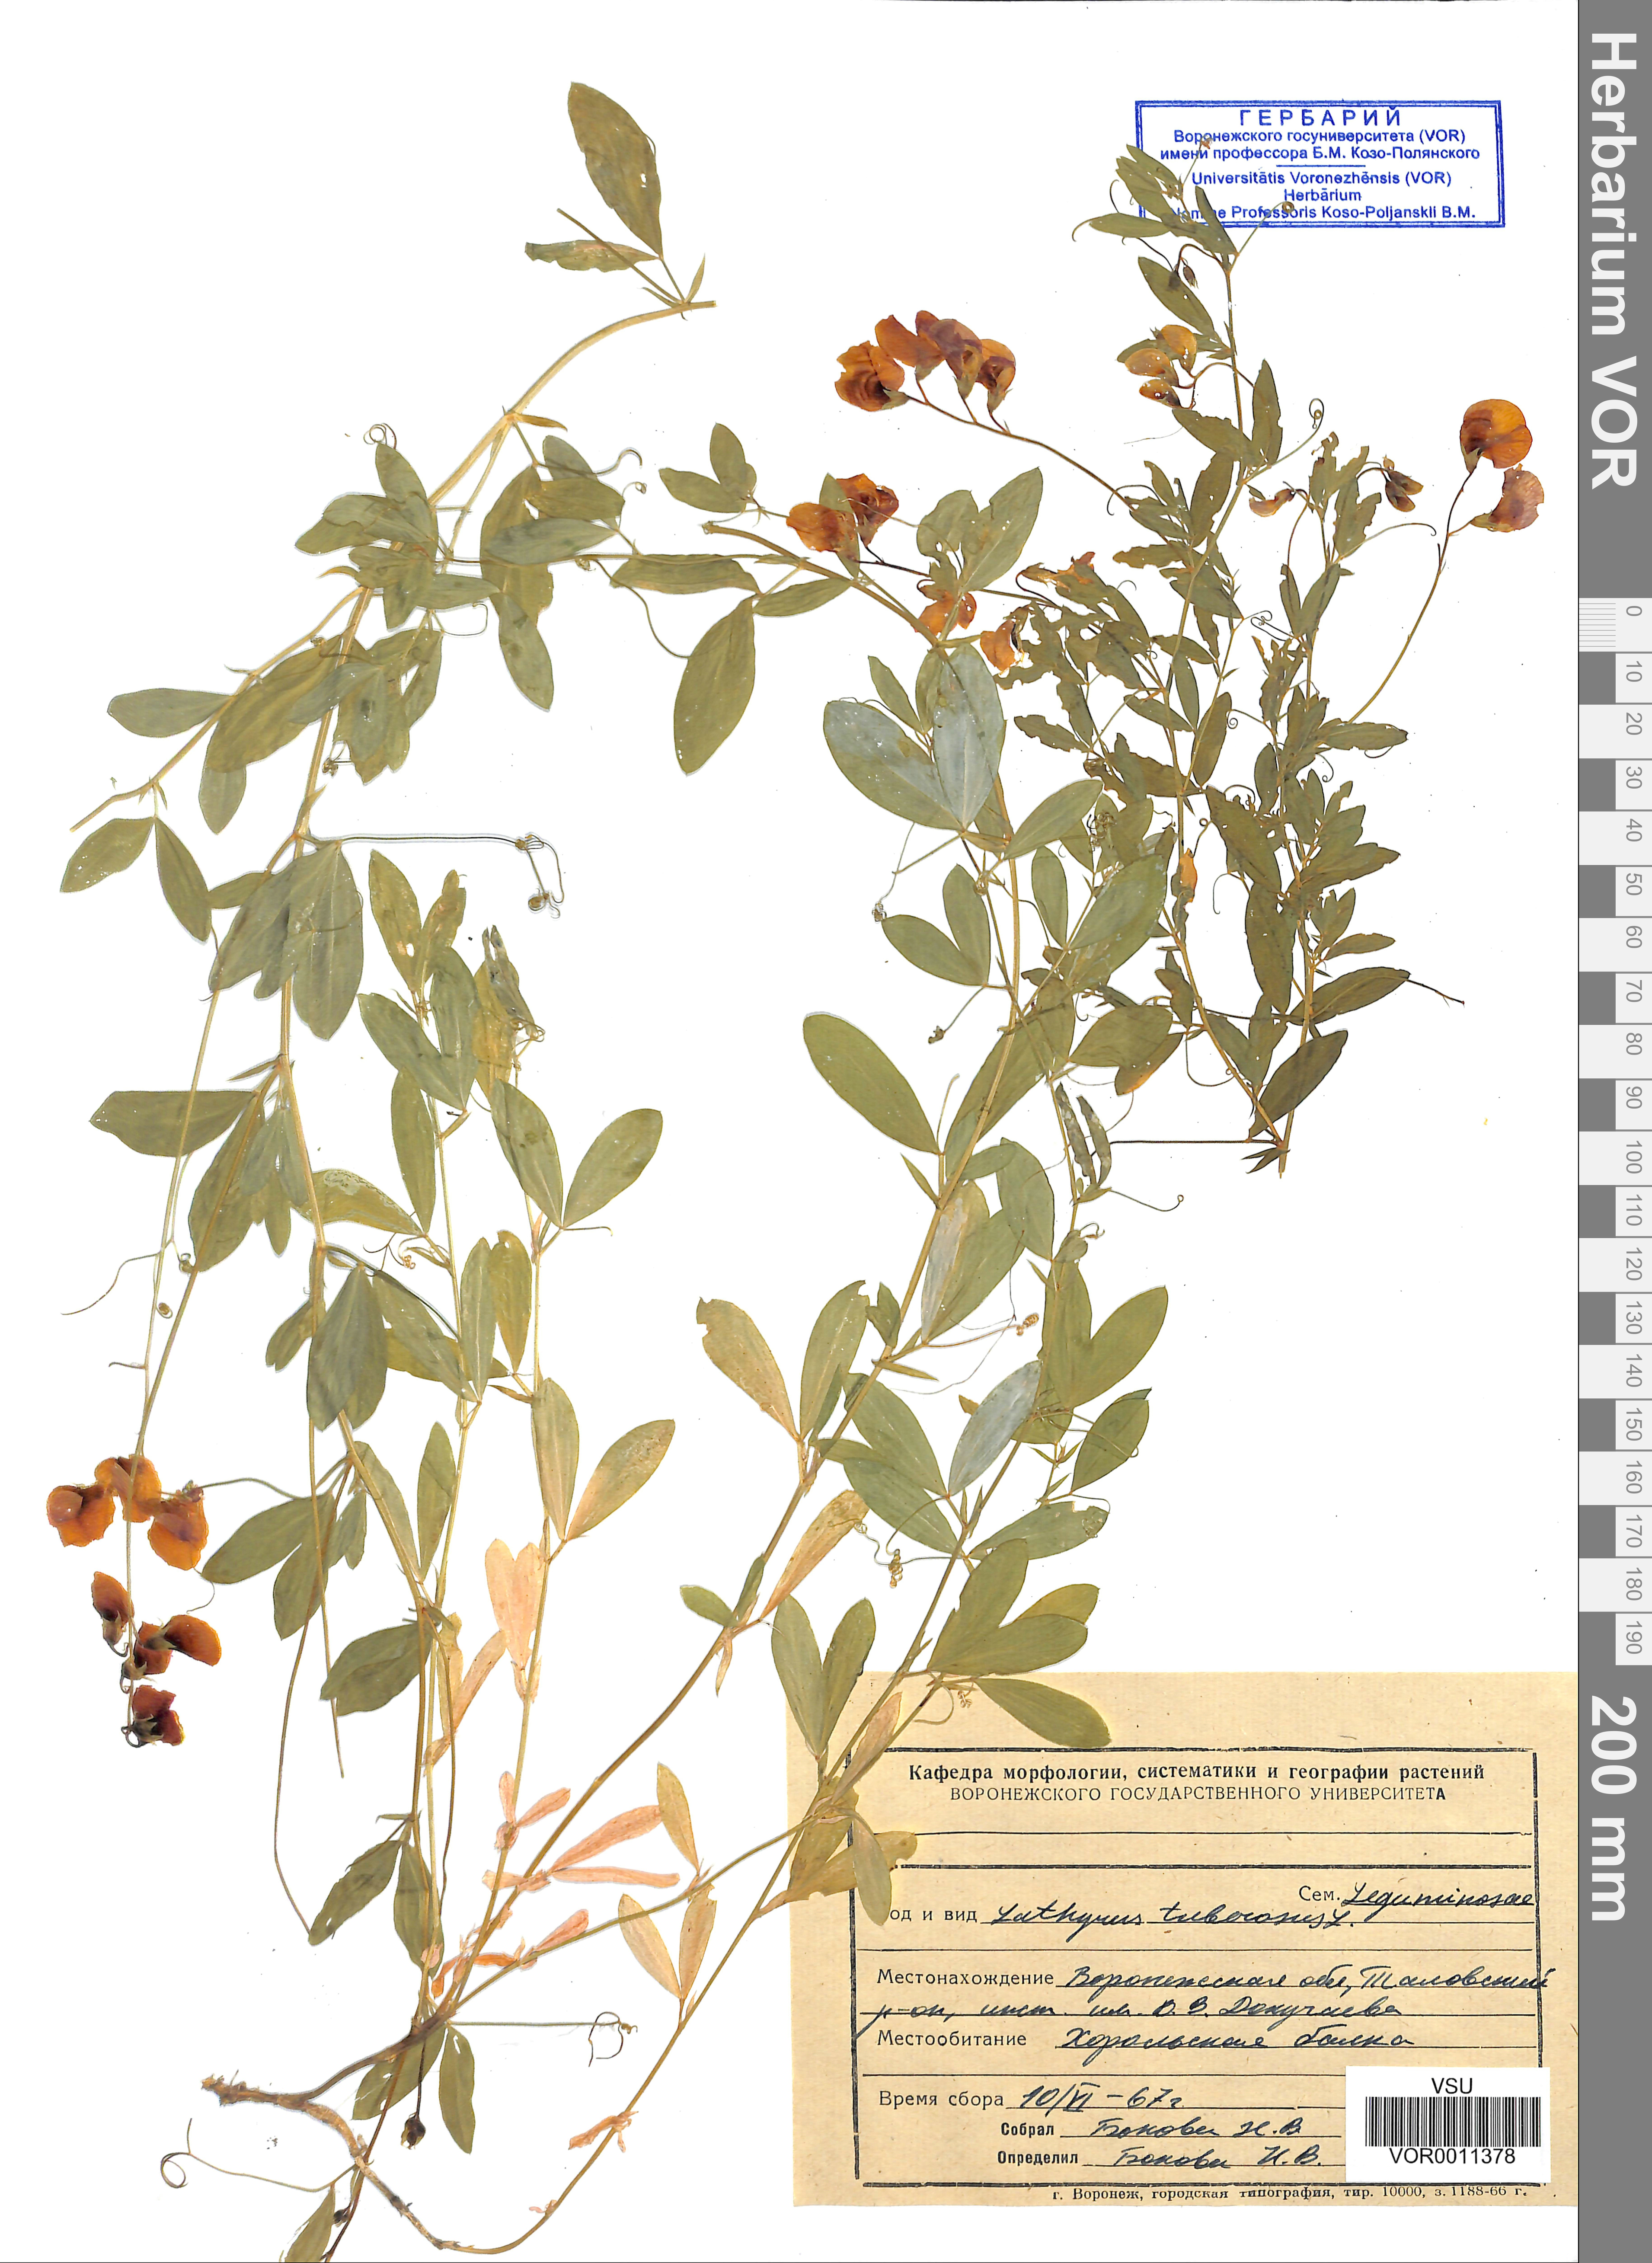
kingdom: Plantae
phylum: Tracheophyta
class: Magnoliopsida
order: Fabales
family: Fabaceae
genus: Lathyrus
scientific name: Lathyrus tuberosus
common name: Tuberous pea
